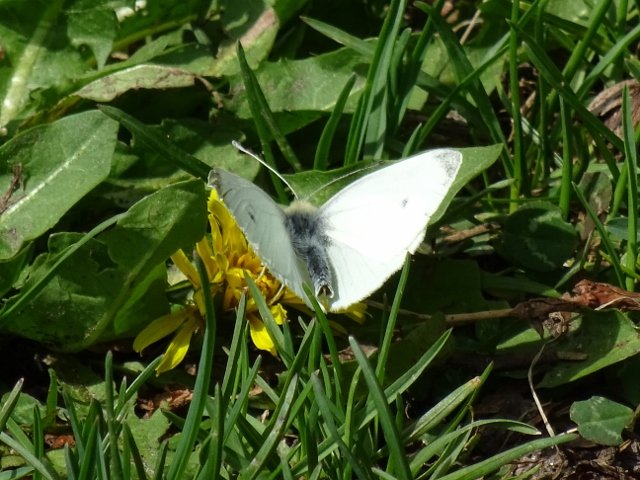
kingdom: Animalia
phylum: Arthropoda
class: Insecta
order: Lepidoptera
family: Pieridae
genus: Pieris
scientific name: Pieris rapae
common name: Cabbage White
